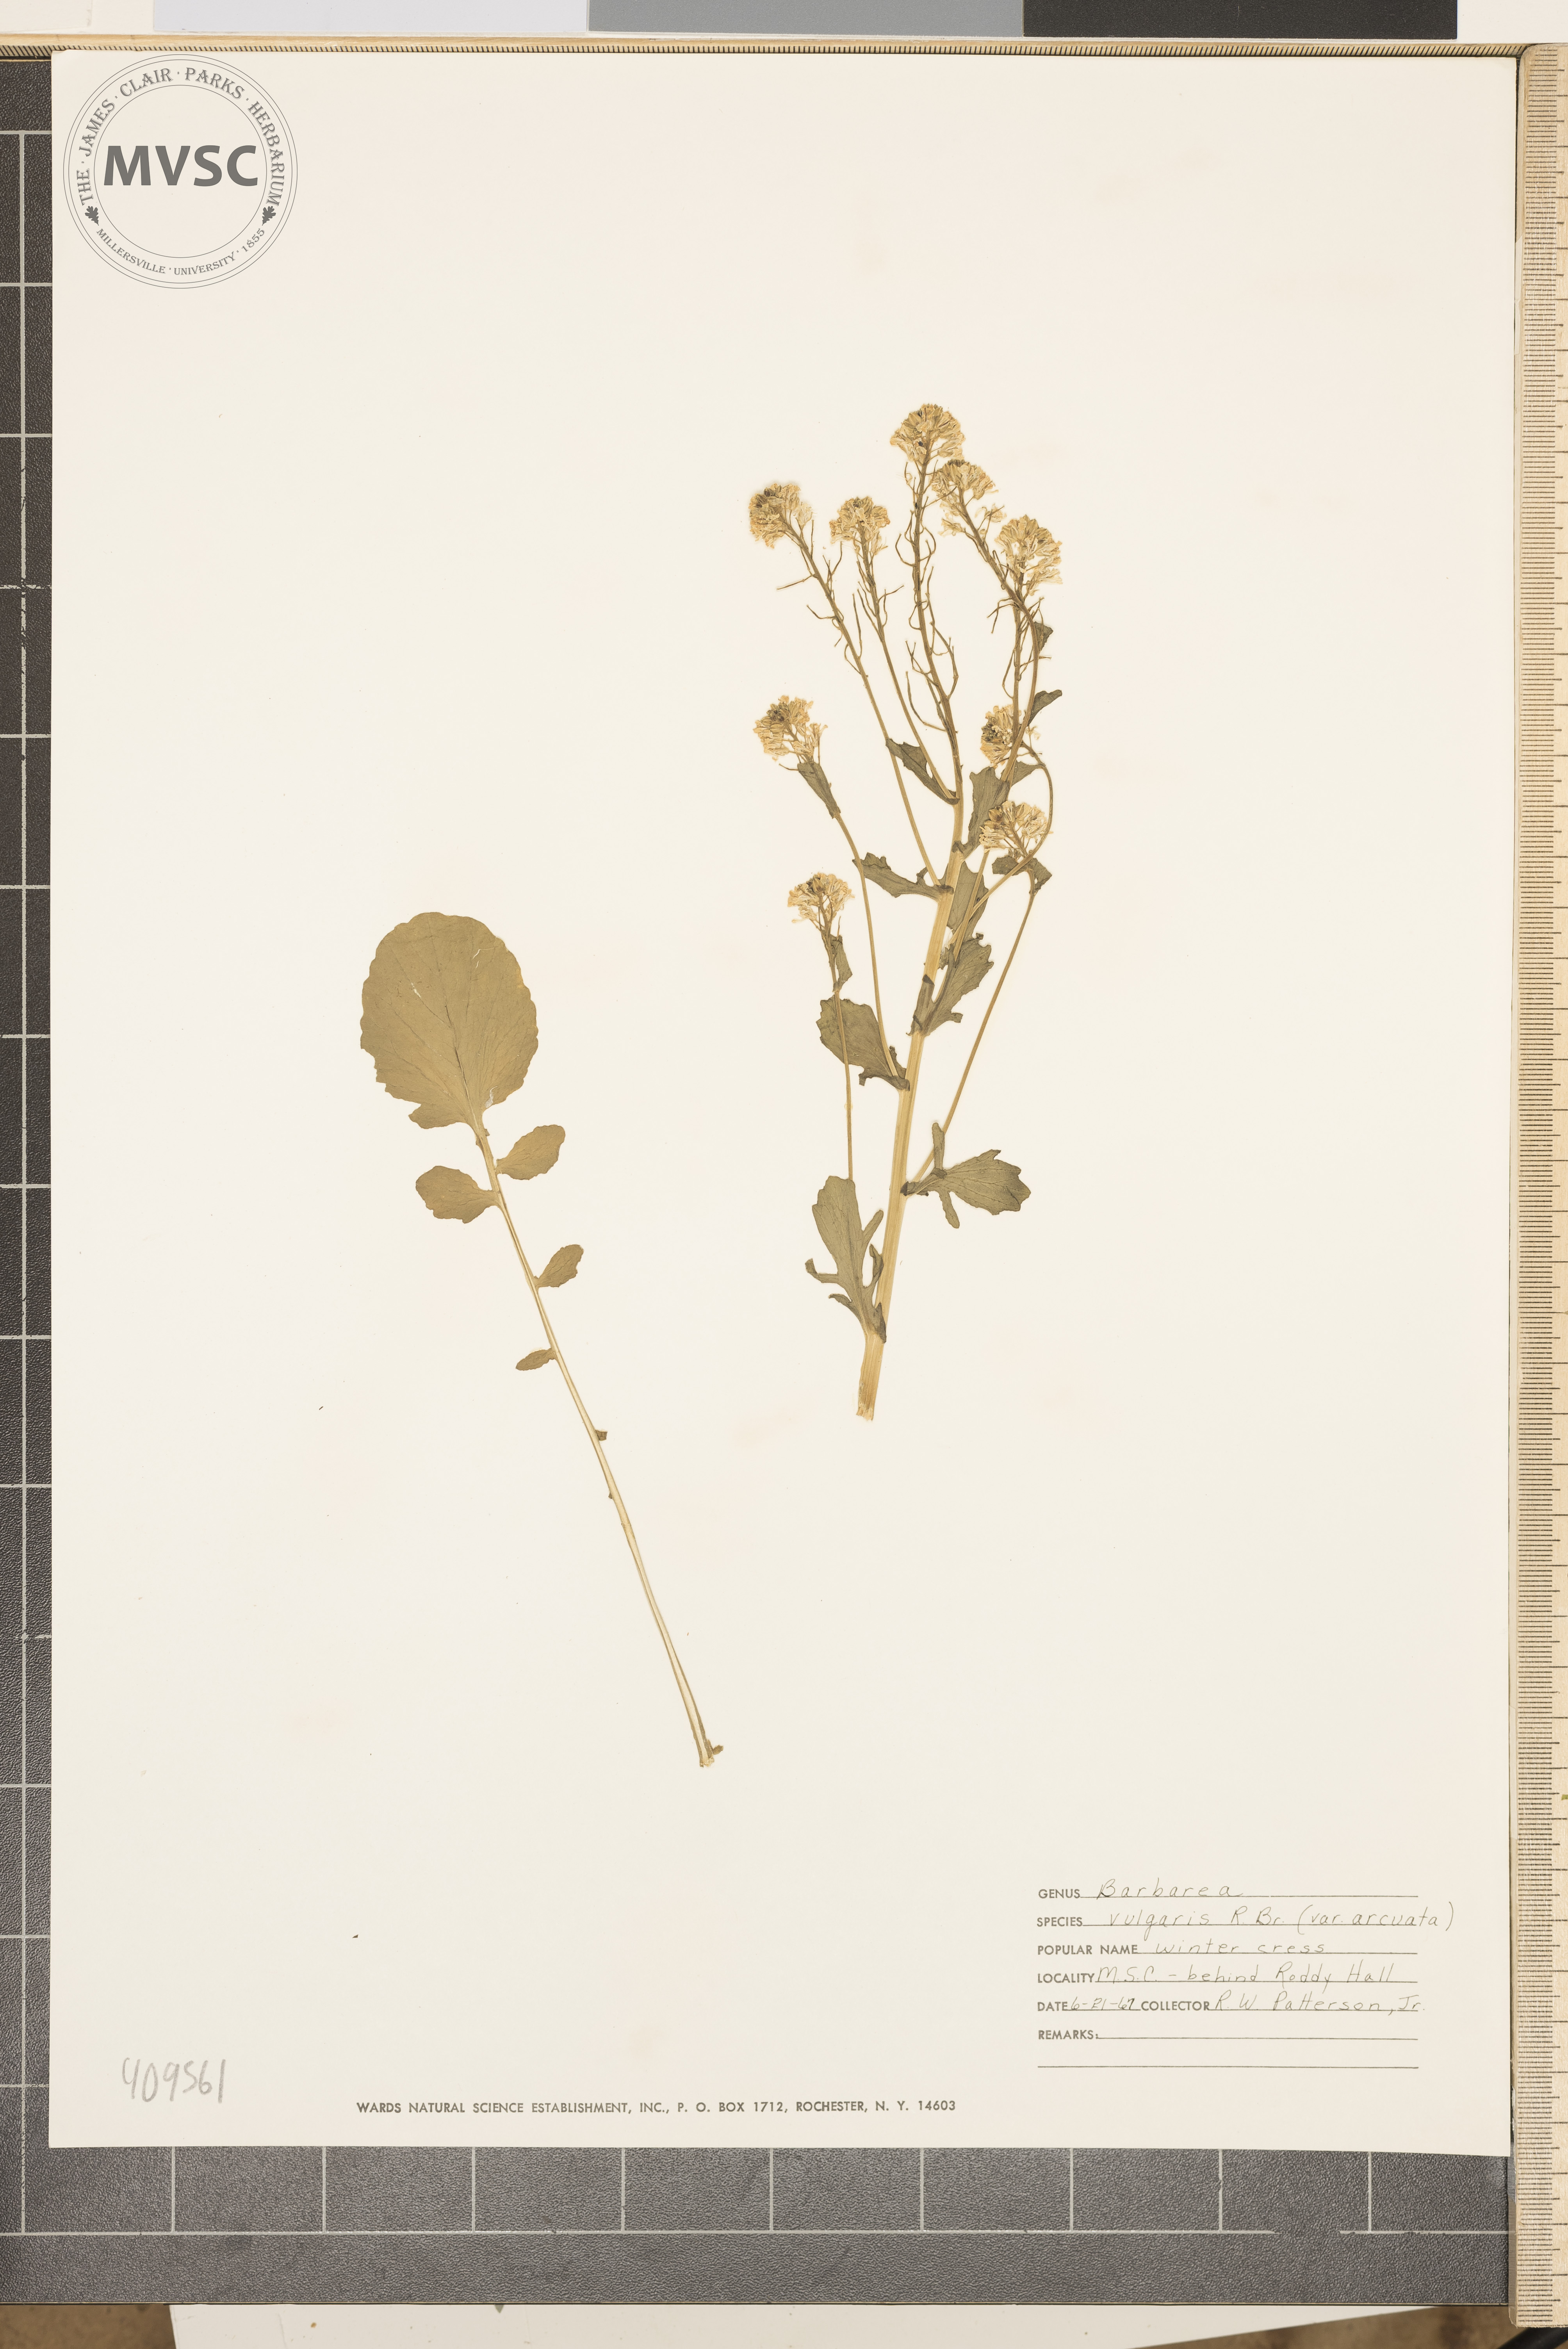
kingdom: Plantae
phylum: Tracheophyta
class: Magnoliopsida
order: Brassicales
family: Brassicaceae
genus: Barbarea
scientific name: Barbarea vulgaris
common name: Cressy-greens
